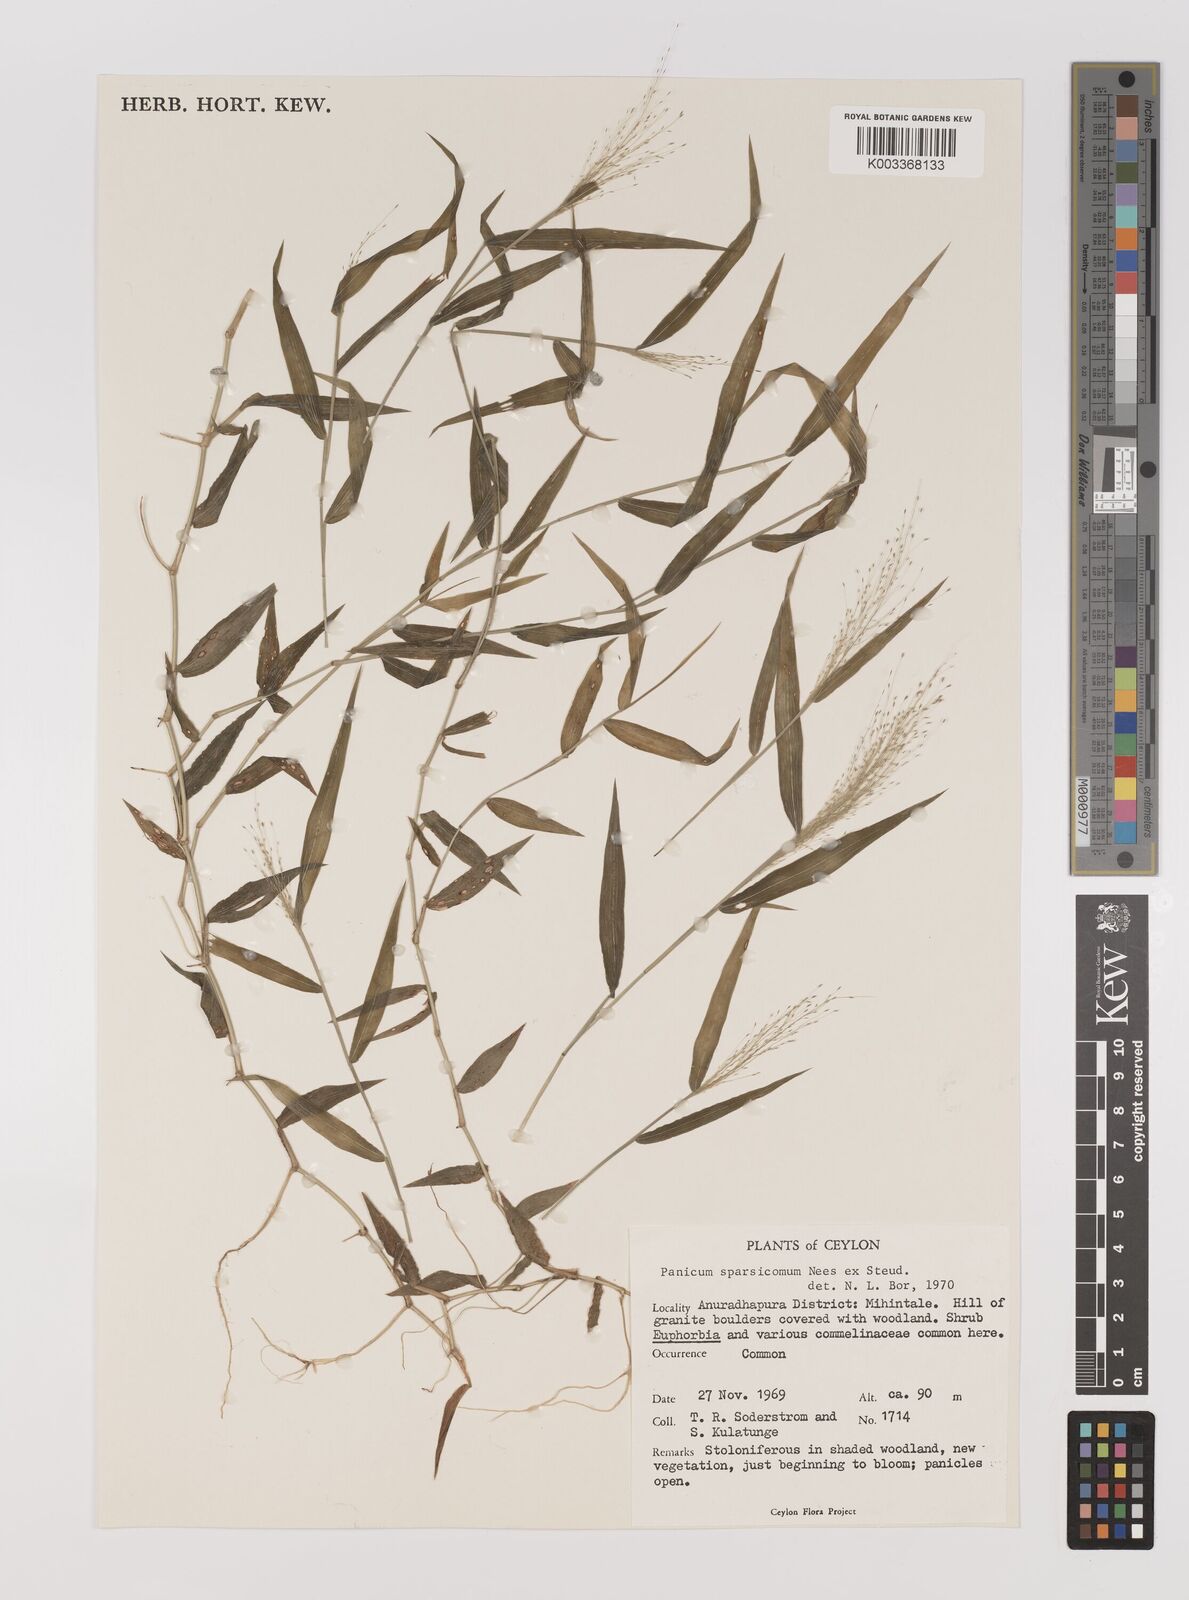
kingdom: Plantae
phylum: Tracheophyta
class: Liliopsida
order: Poales
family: Poaceae
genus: Panicum
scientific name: Panicum sparsicomum
